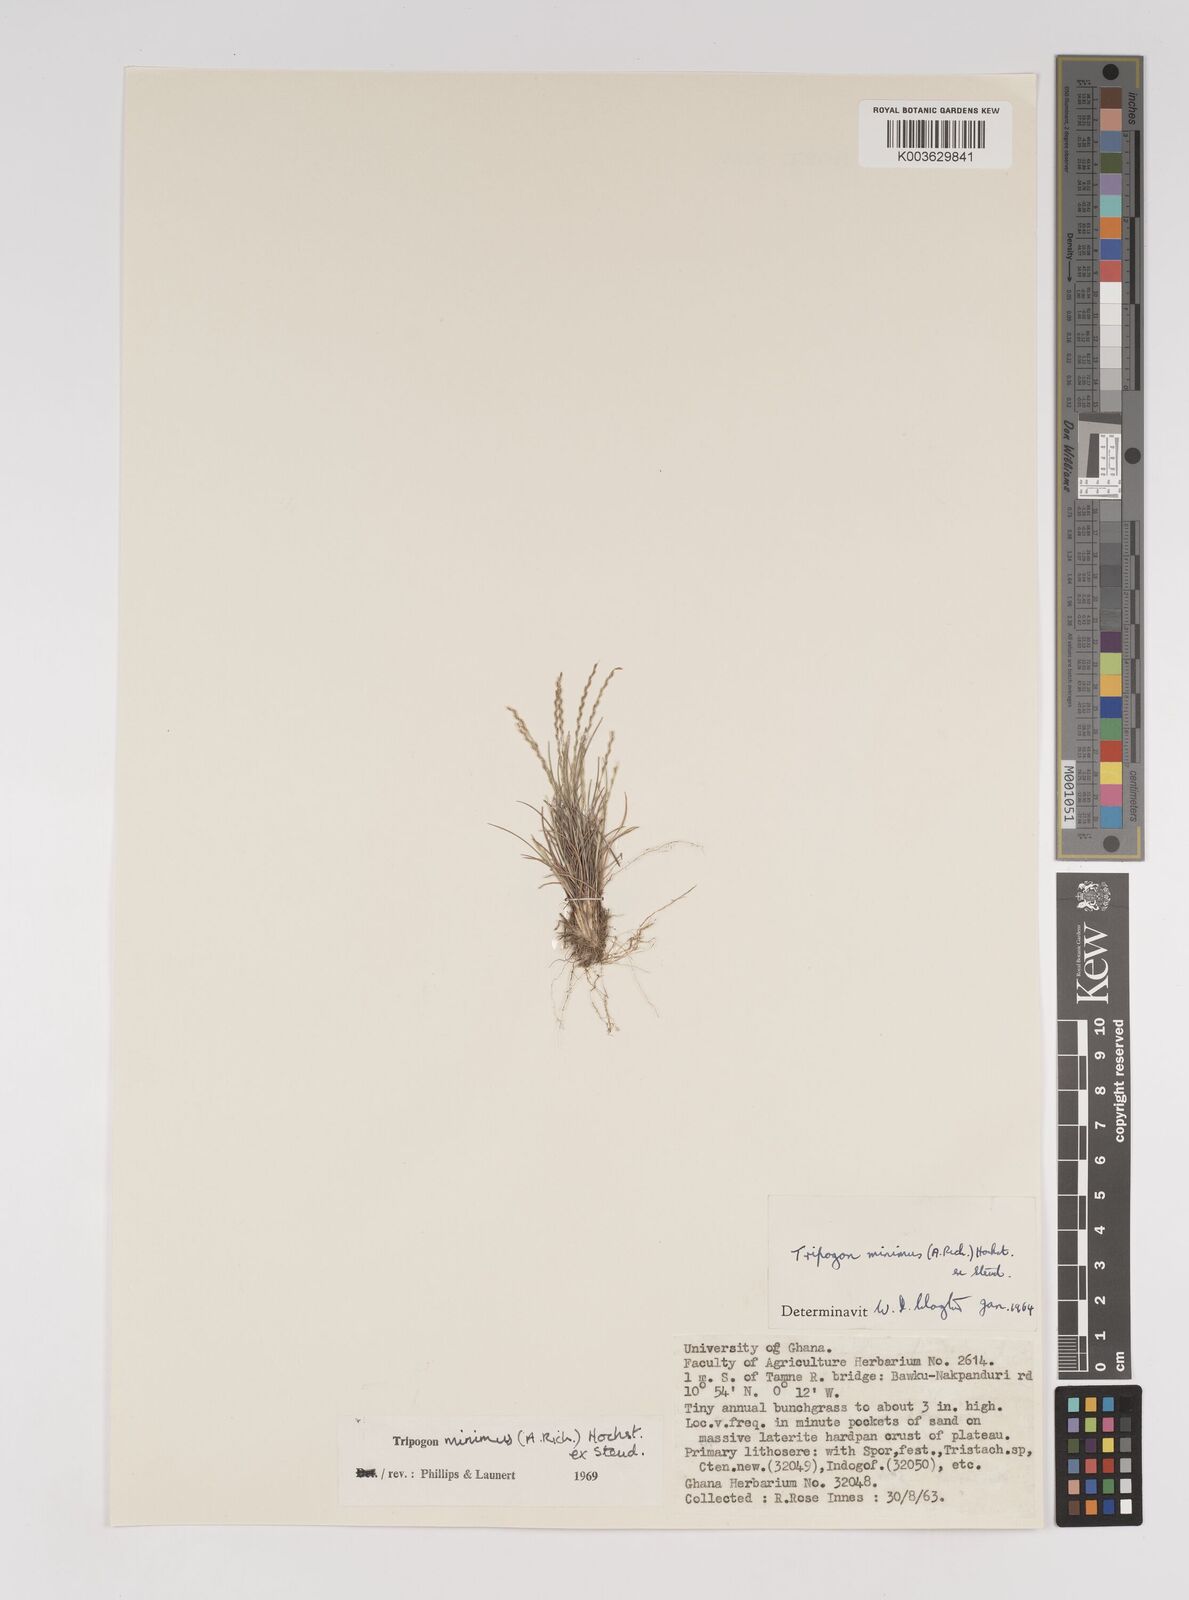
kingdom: Plantae
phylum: Tracheophyta
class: Liliopsida
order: Poales
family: Poaceae
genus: Tripogonella
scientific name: Tripogonella minima
